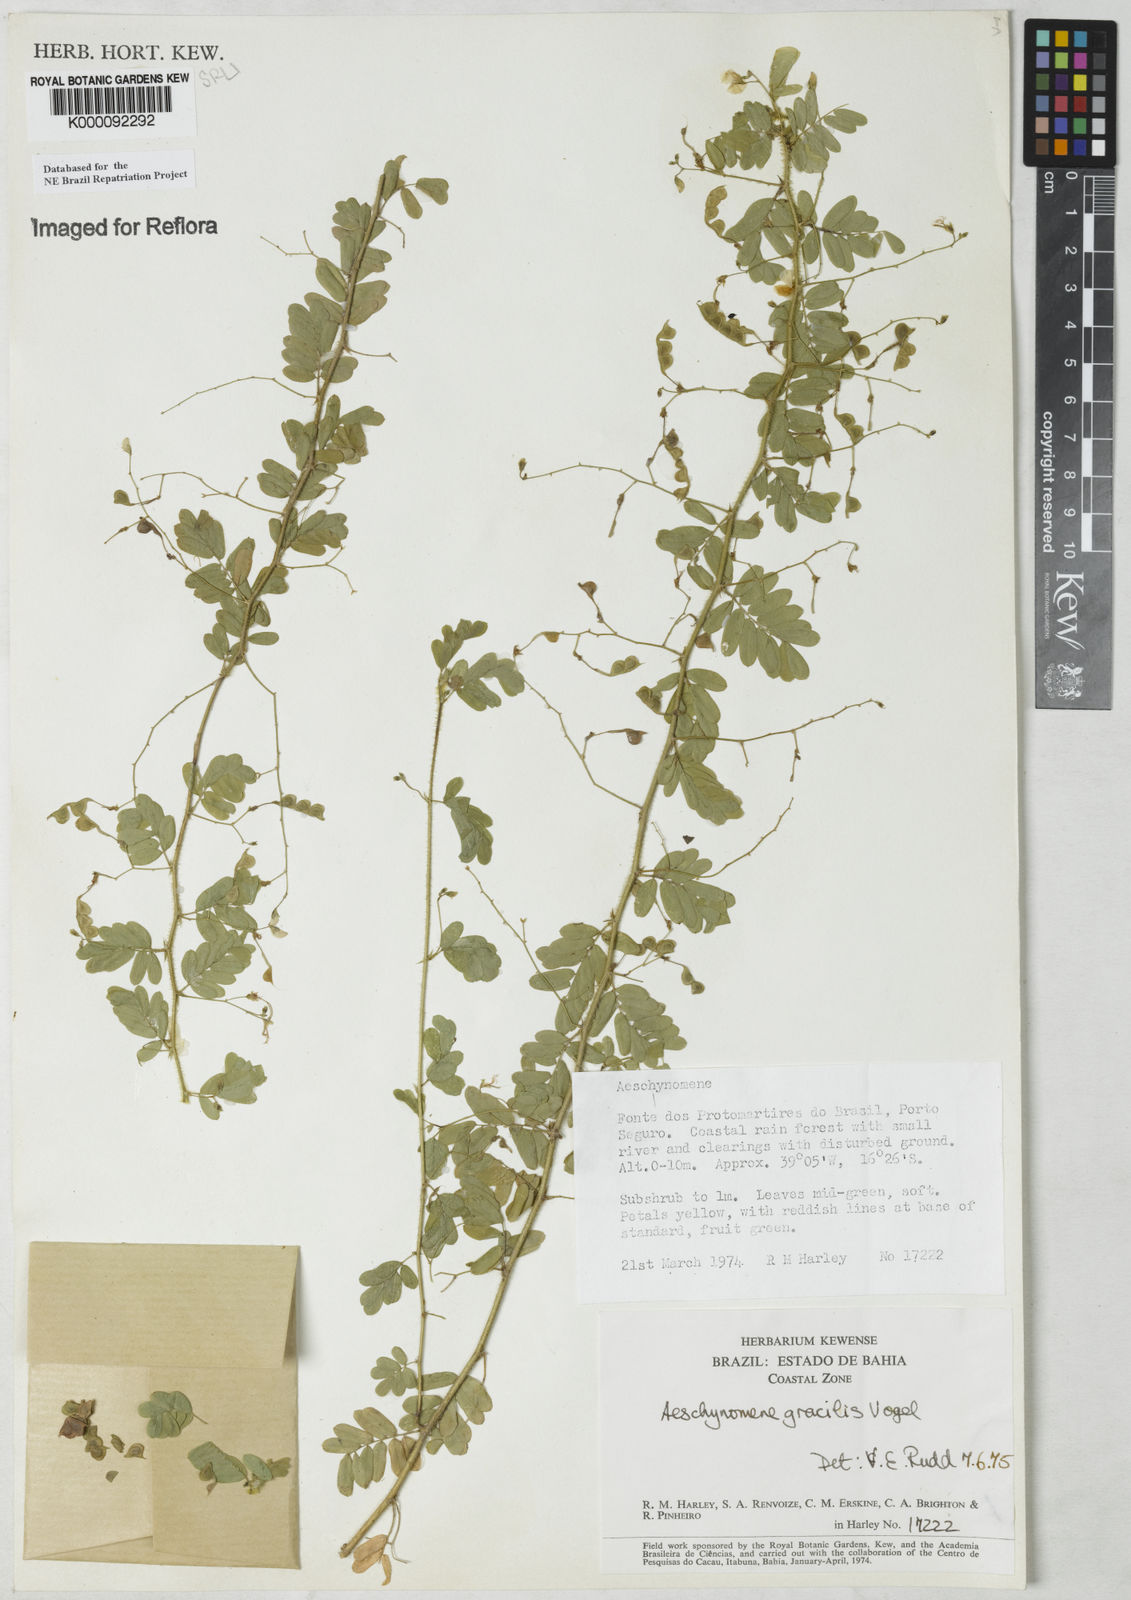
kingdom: Plantae
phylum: Tracheophyta
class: Magnoliopsida
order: Fabales
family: Fabaceae
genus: Ctenodon
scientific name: Ctenodon gracilis
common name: Puerto rico jointvetch
